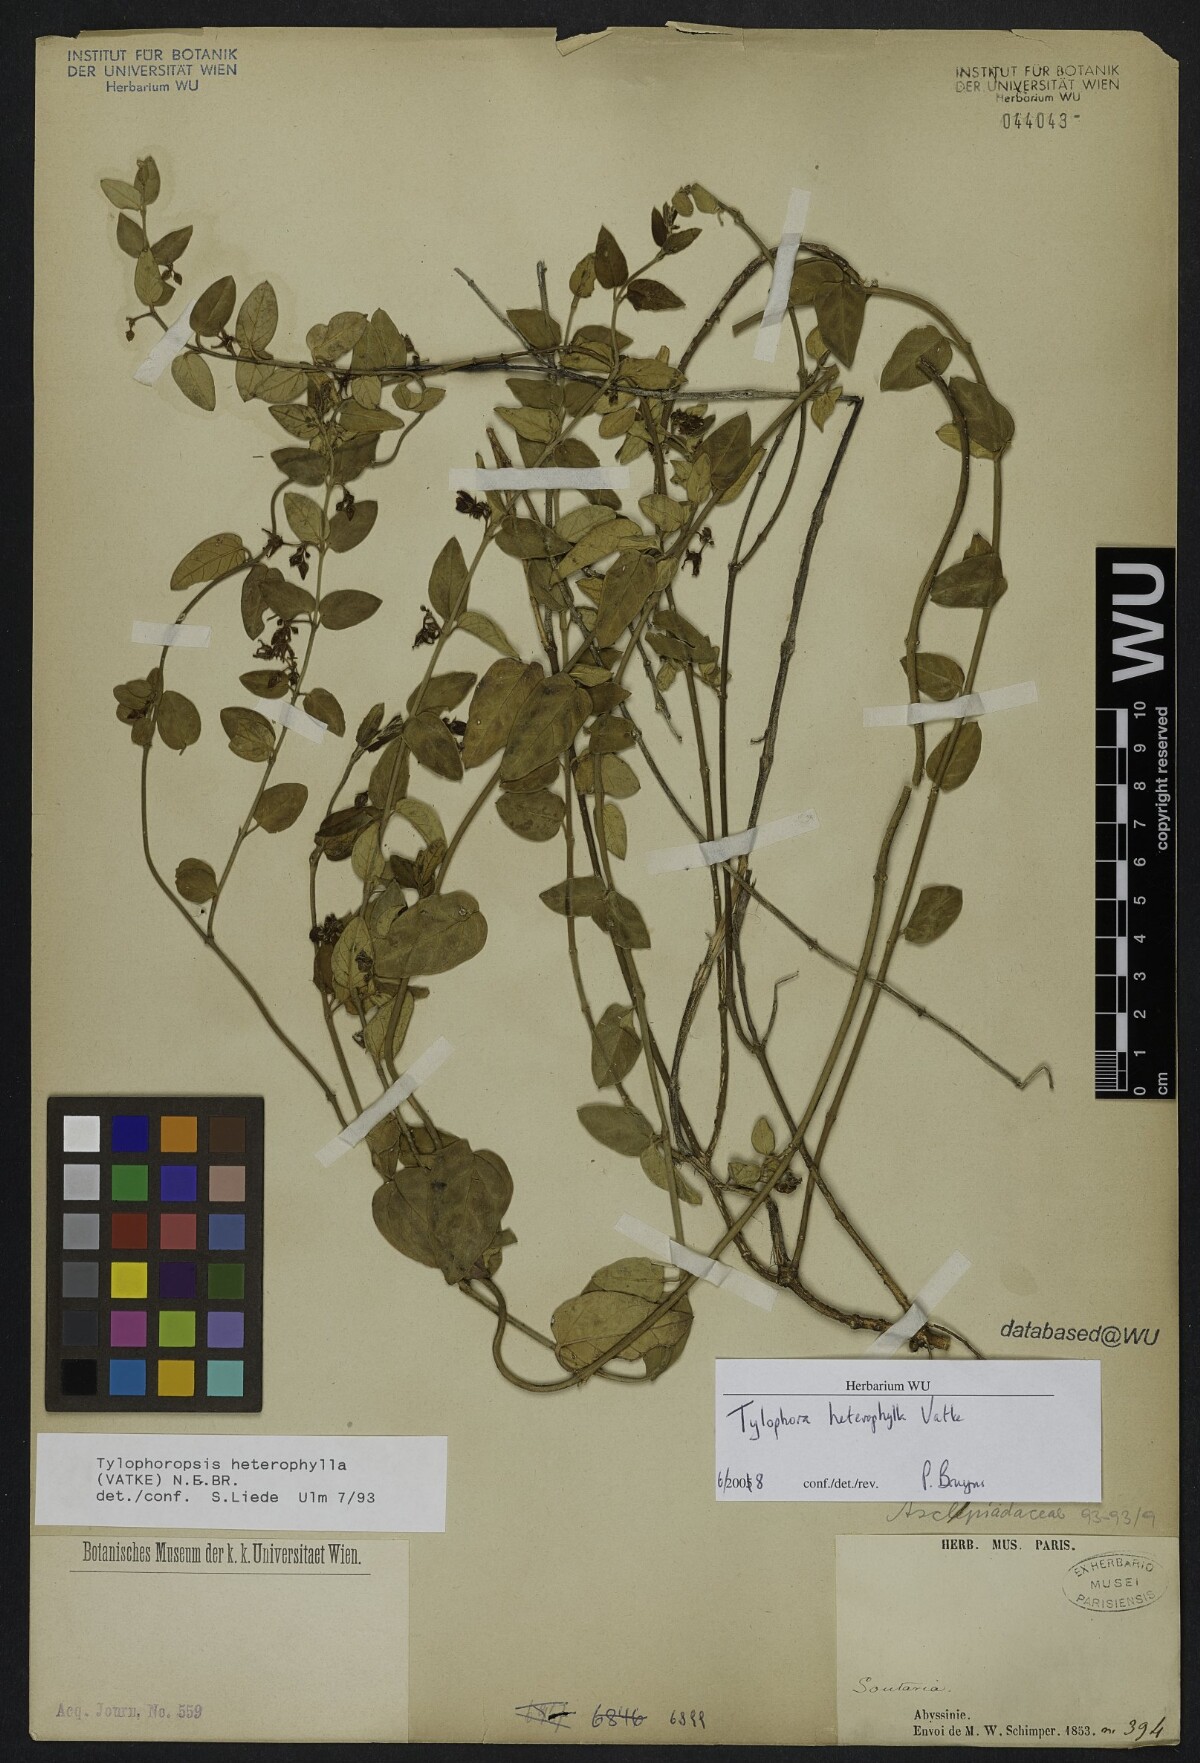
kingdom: Plantae
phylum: Tracheophyta
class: Magnoliopsida
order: Gentianales
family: Apocynaceae
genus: Vincetoxicum
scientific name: Vincetoxicum heterophyllum
